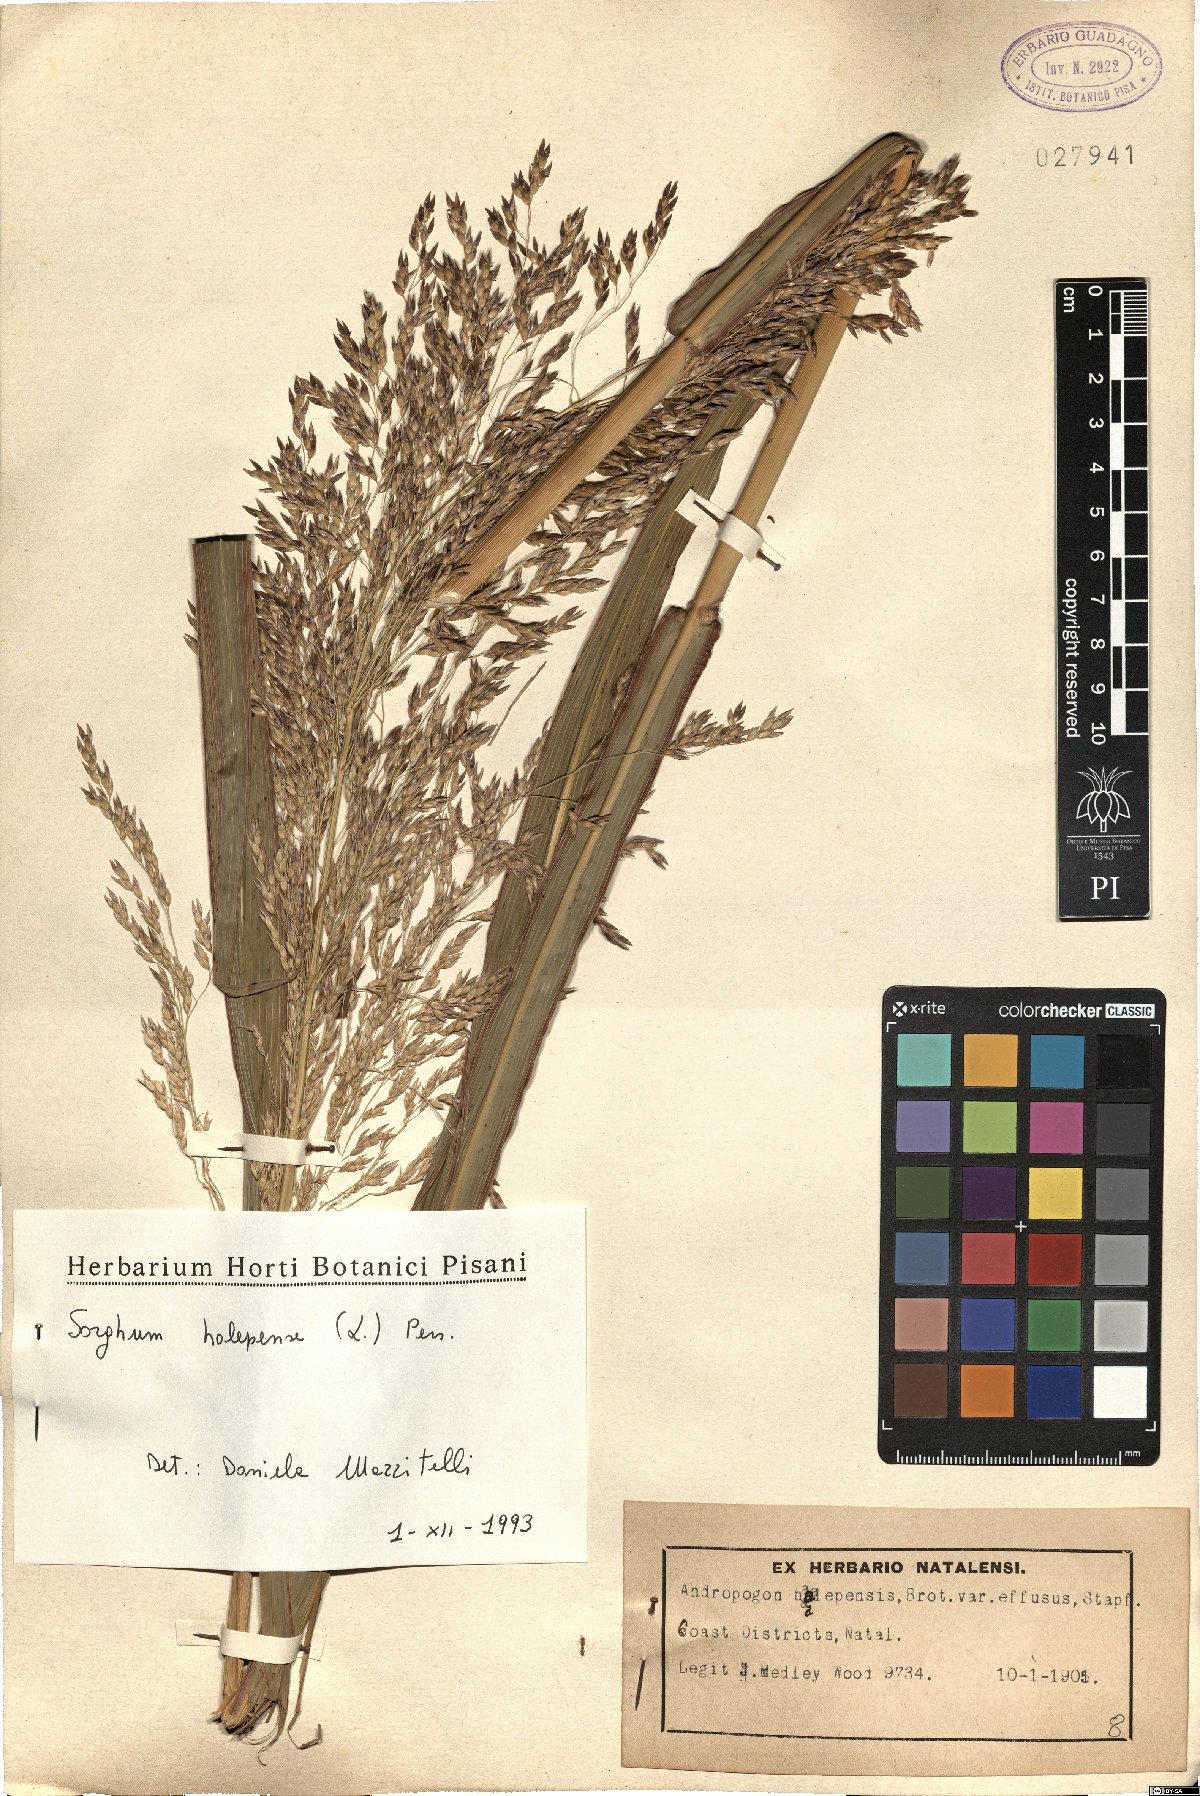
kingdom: Plantae
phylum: Tracheophyta
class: Liliopsida
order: Poales
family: Poaceae
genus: Sorghum
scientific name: Sorghum halepense
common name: Johnson-grass
